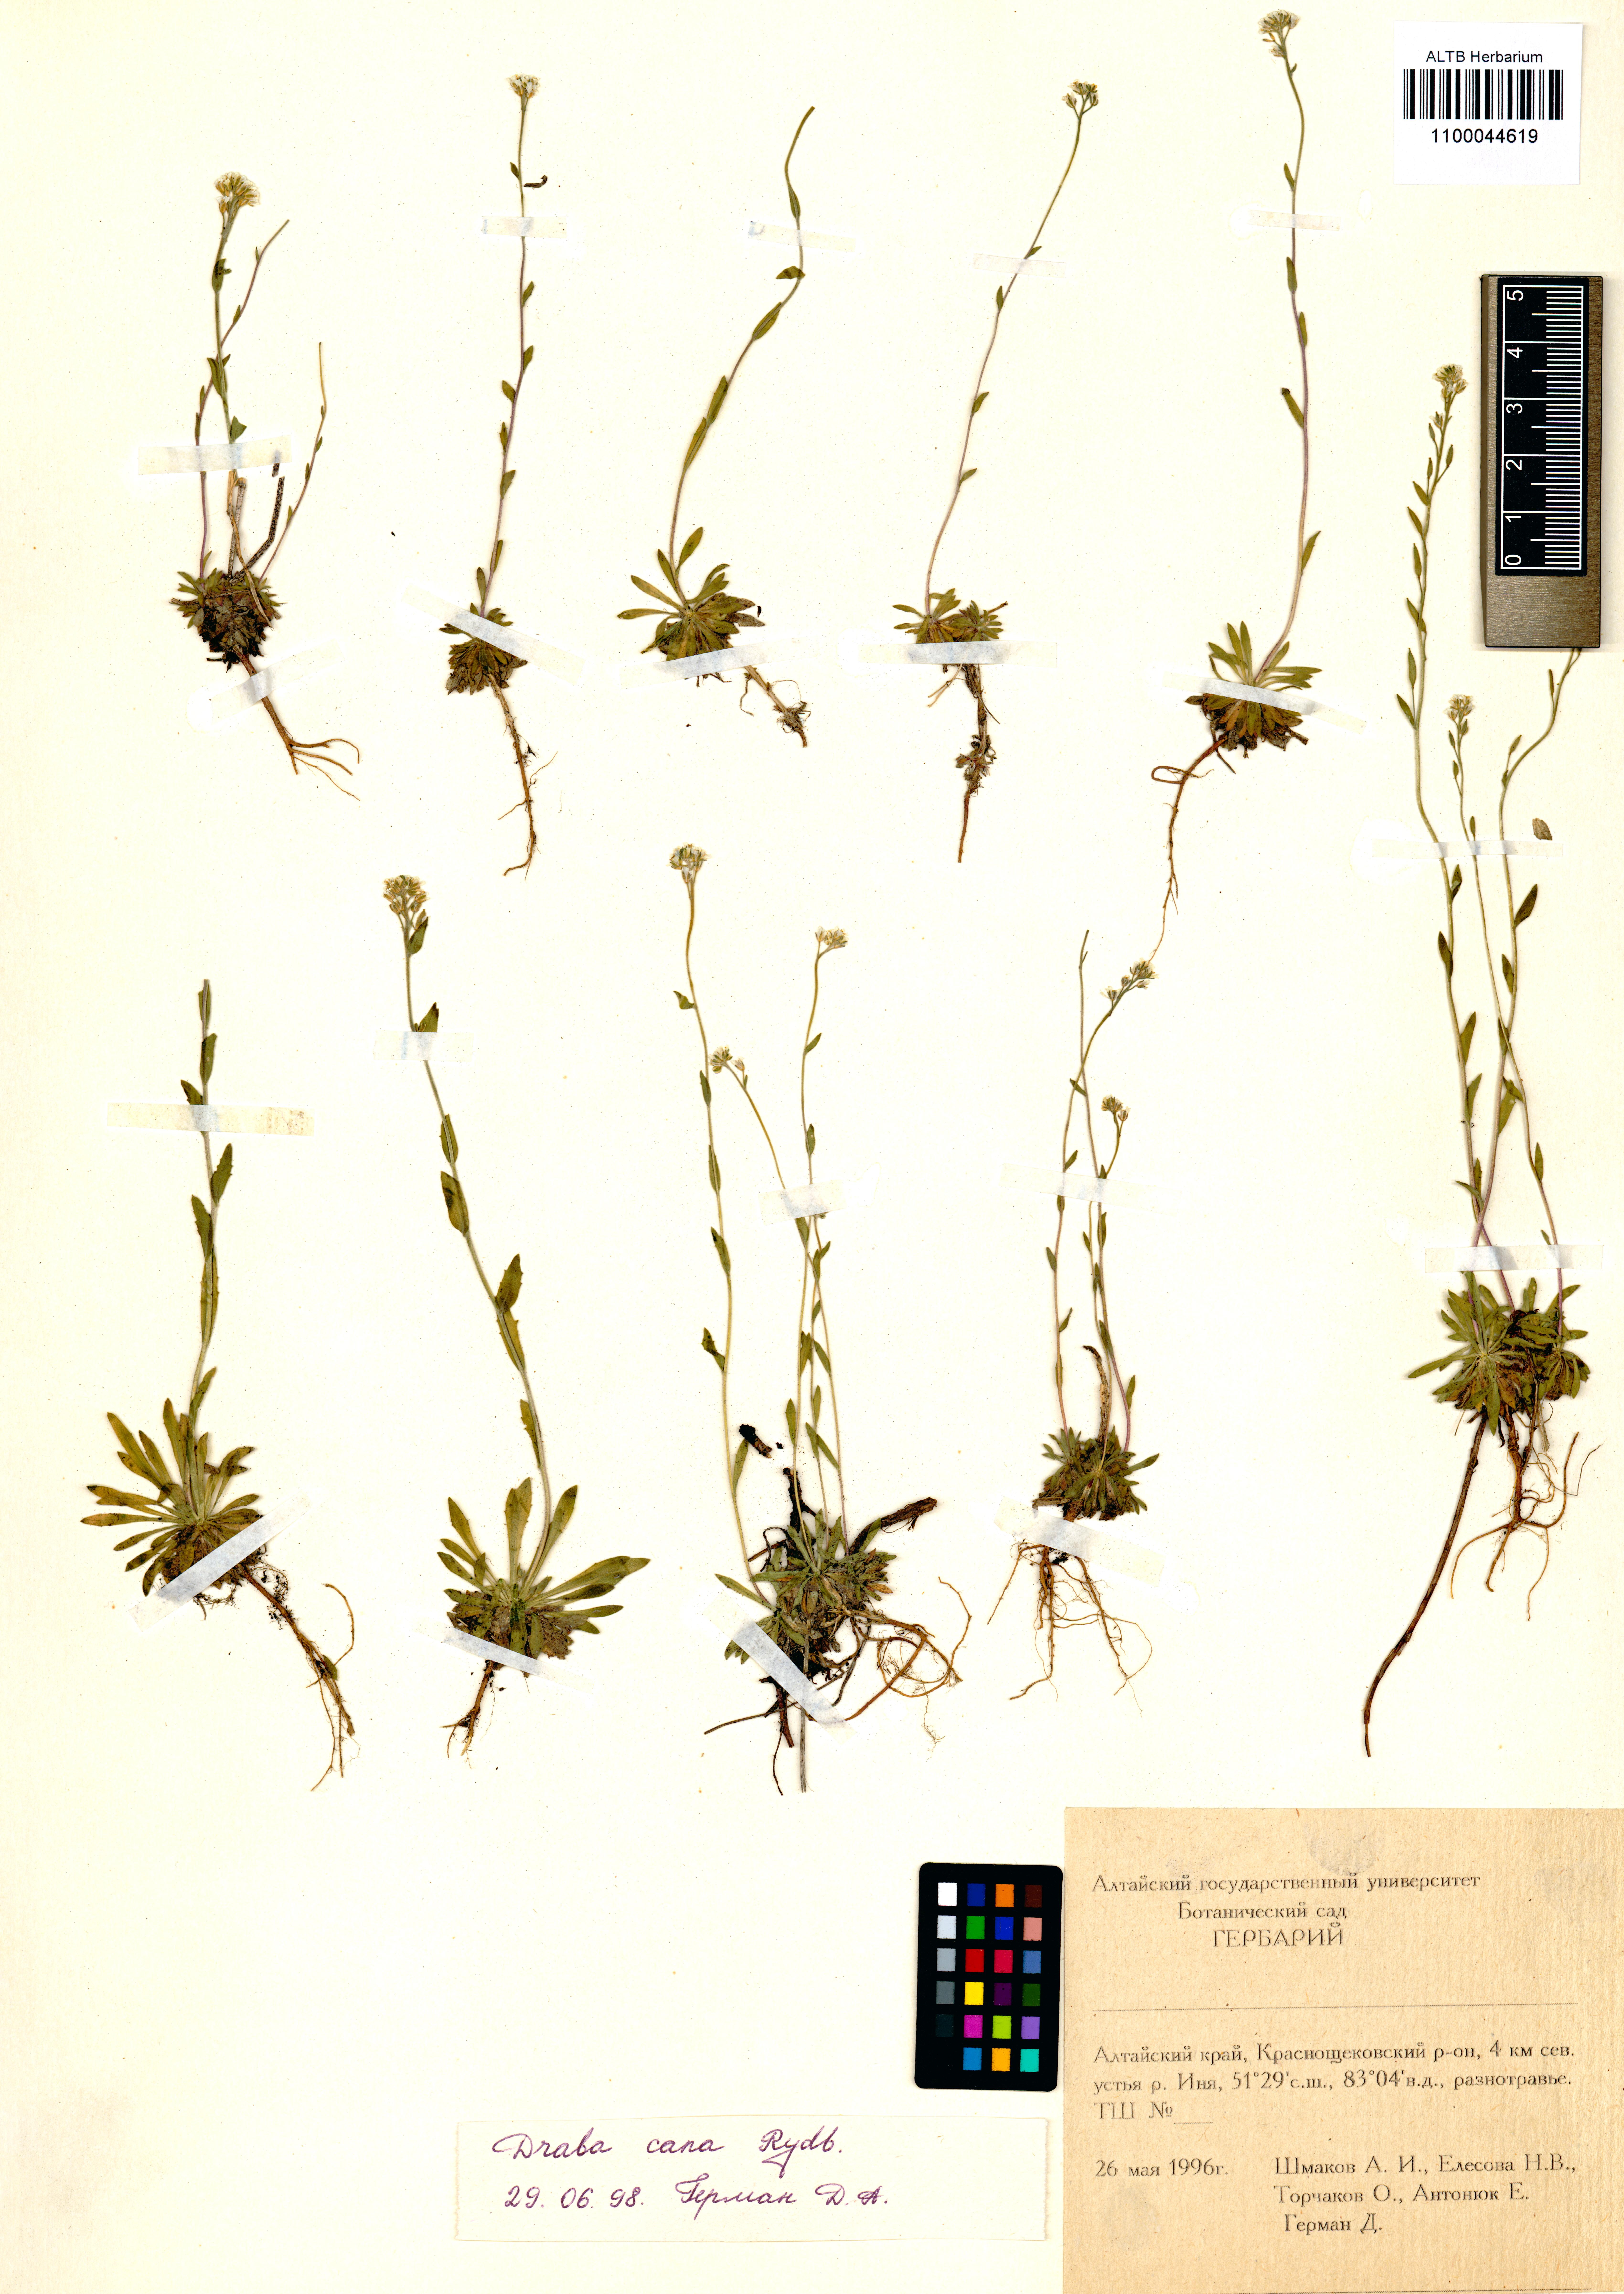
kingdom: Plantae
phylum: Tracheophyta
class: Magnoliopsida
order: Brassicales
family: Brassicaceae
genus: Draba
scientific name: Draba cana
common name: Hoary draba
